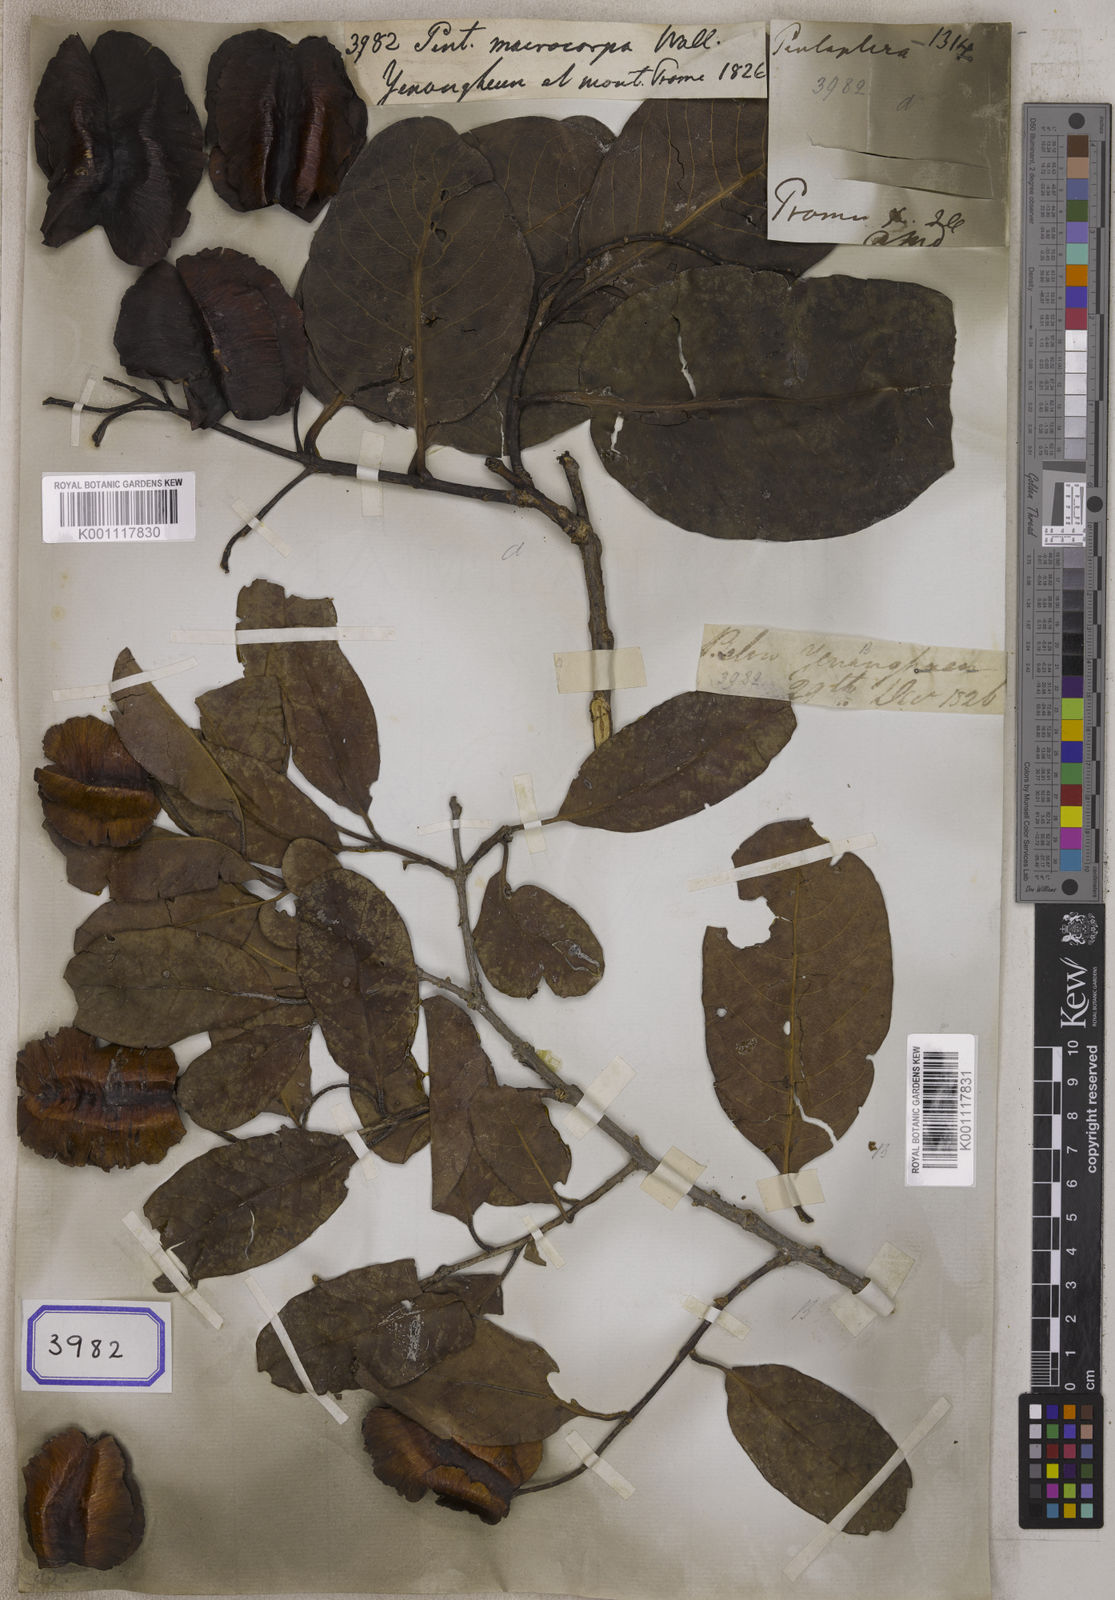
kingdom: Plantae
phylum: Tracheophyta
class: Magnoliopsida
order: Myrtales
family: Combretaceae
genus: Terminalia
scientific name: Terminalia elliptica
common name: Indian-laurel
